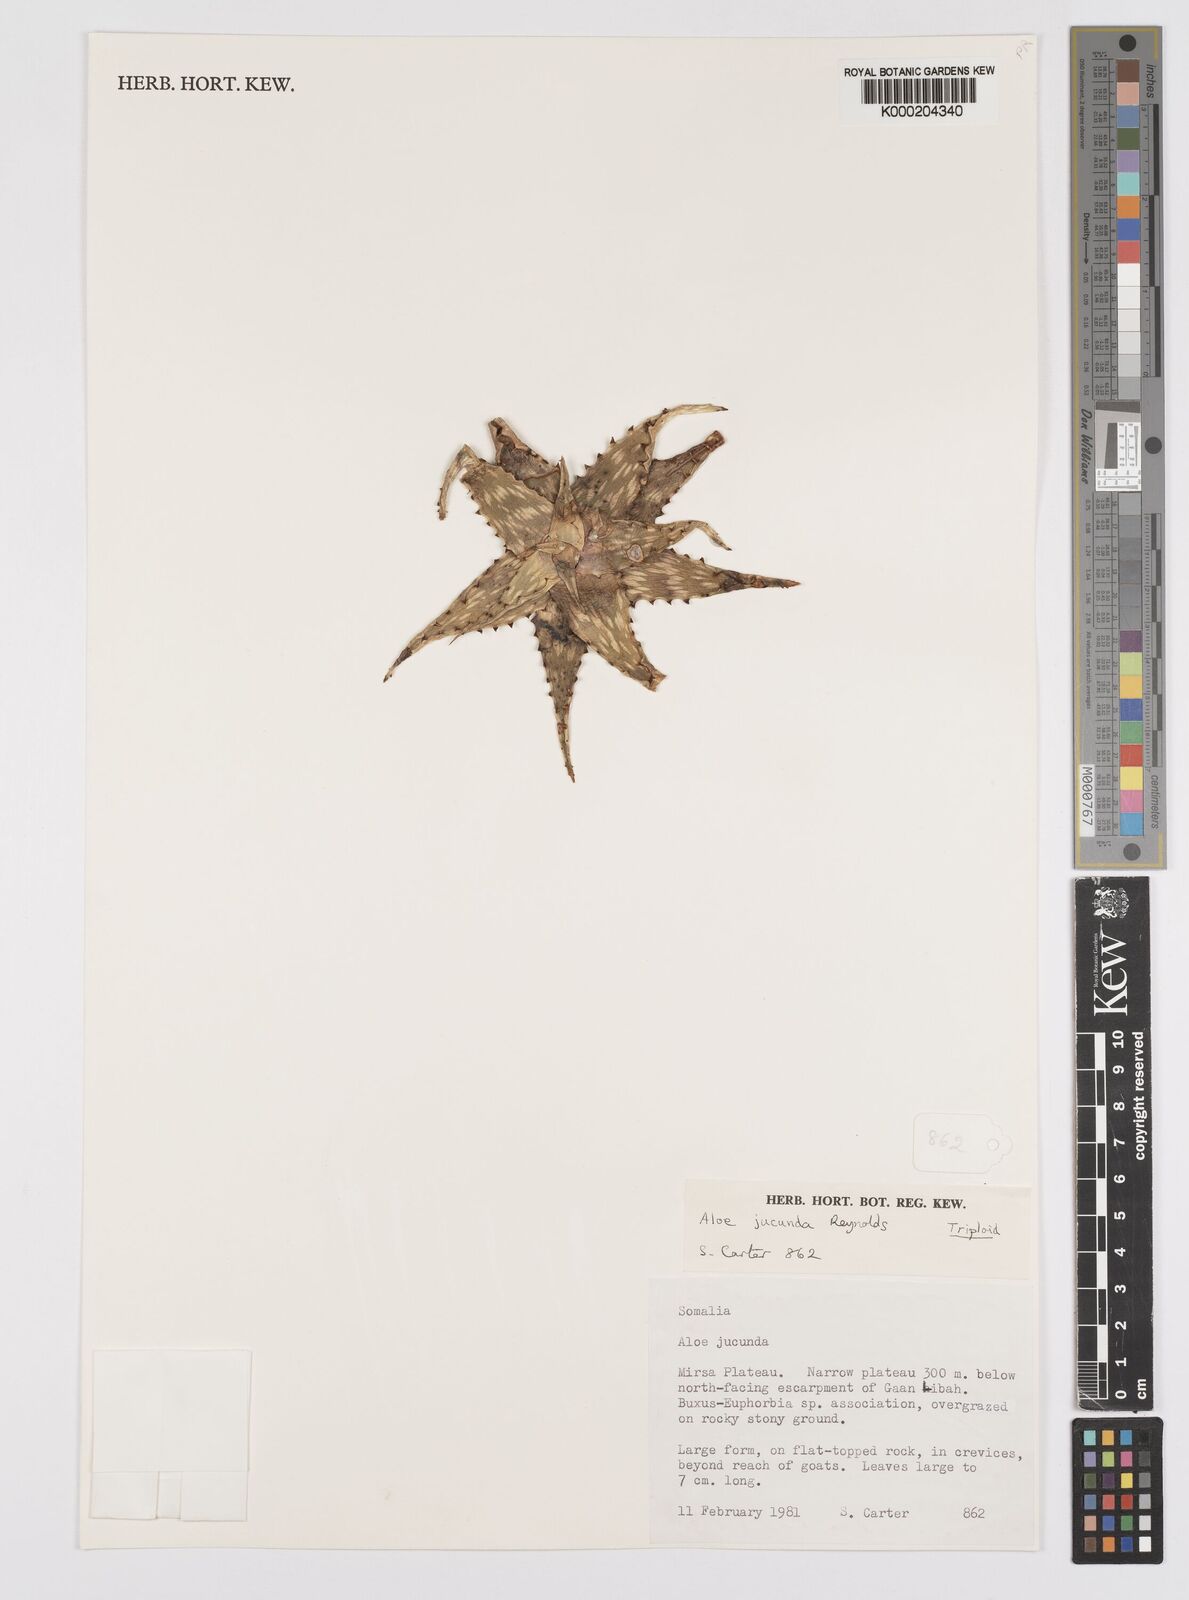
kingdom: Plantae
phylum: Tracheophyta
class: Liliopsida
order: Asparagales
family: Asphodelaceae
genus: Aloe
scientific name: Aloe jucunda
